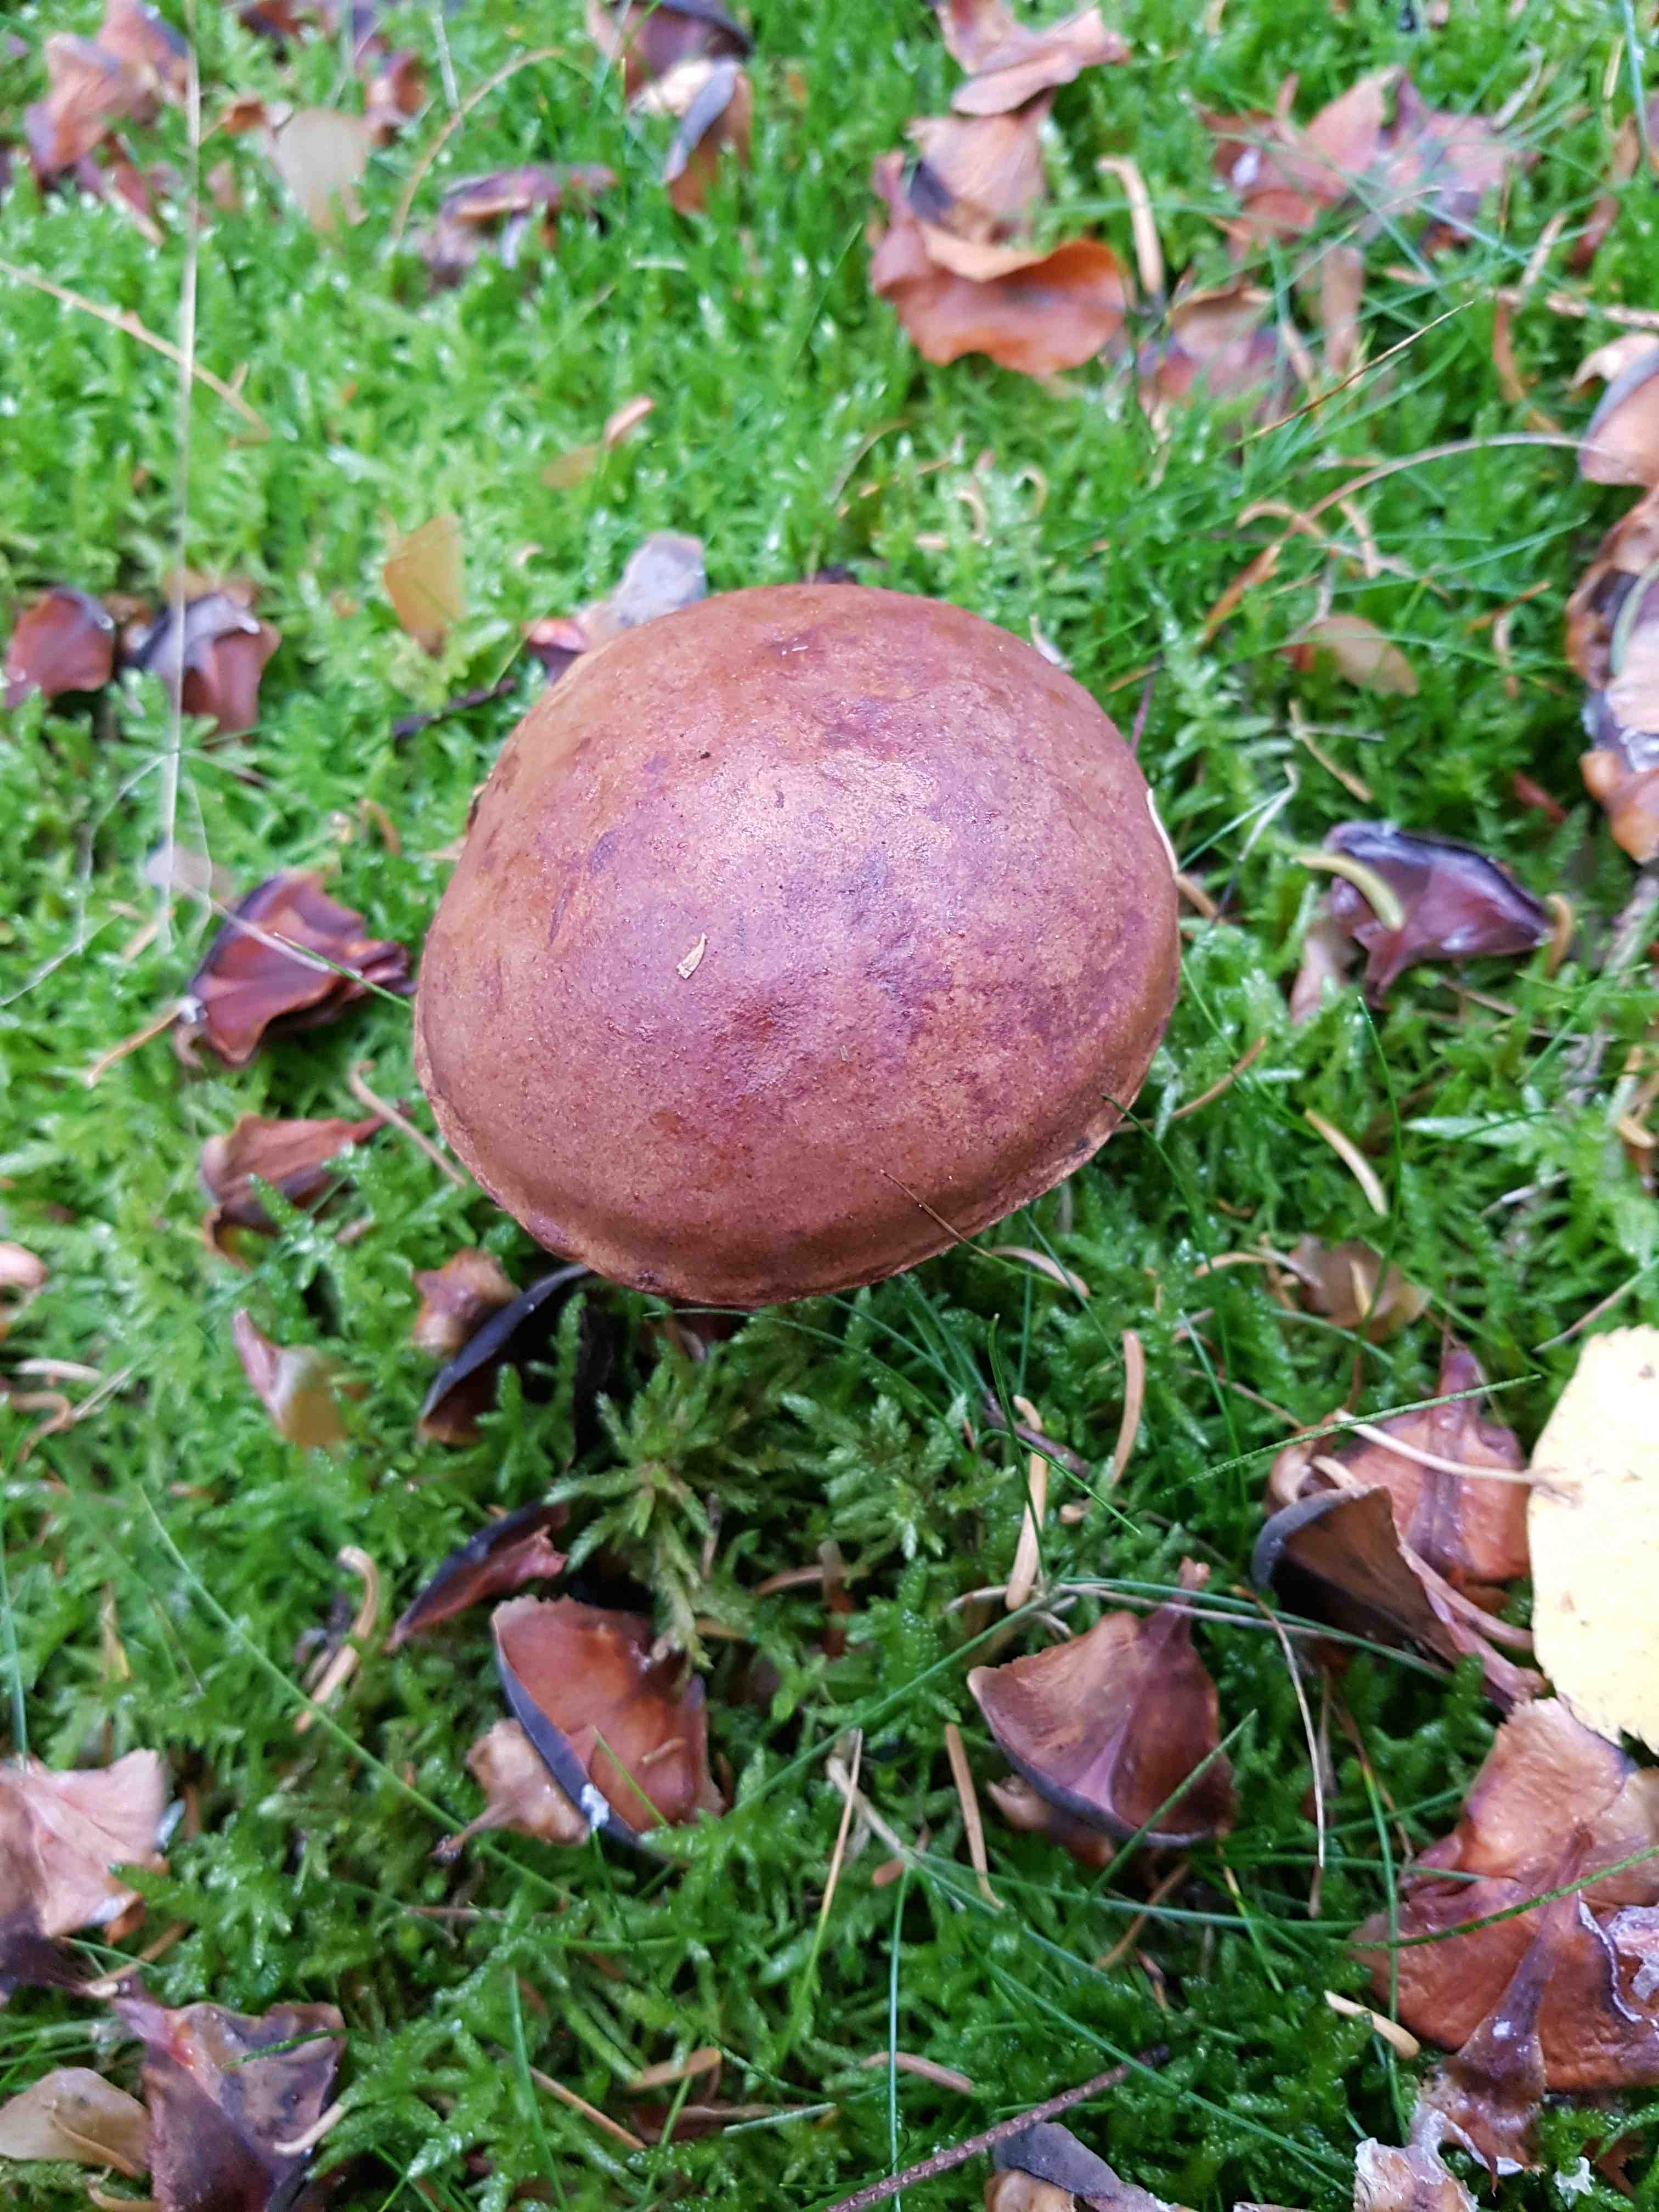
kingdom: Fungi
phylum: Basidiomycota
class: Agaricomycetes
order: Boletales
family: Boletaceae
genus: Imleria
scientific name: Imleria badia
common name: brunstokket rørhat
